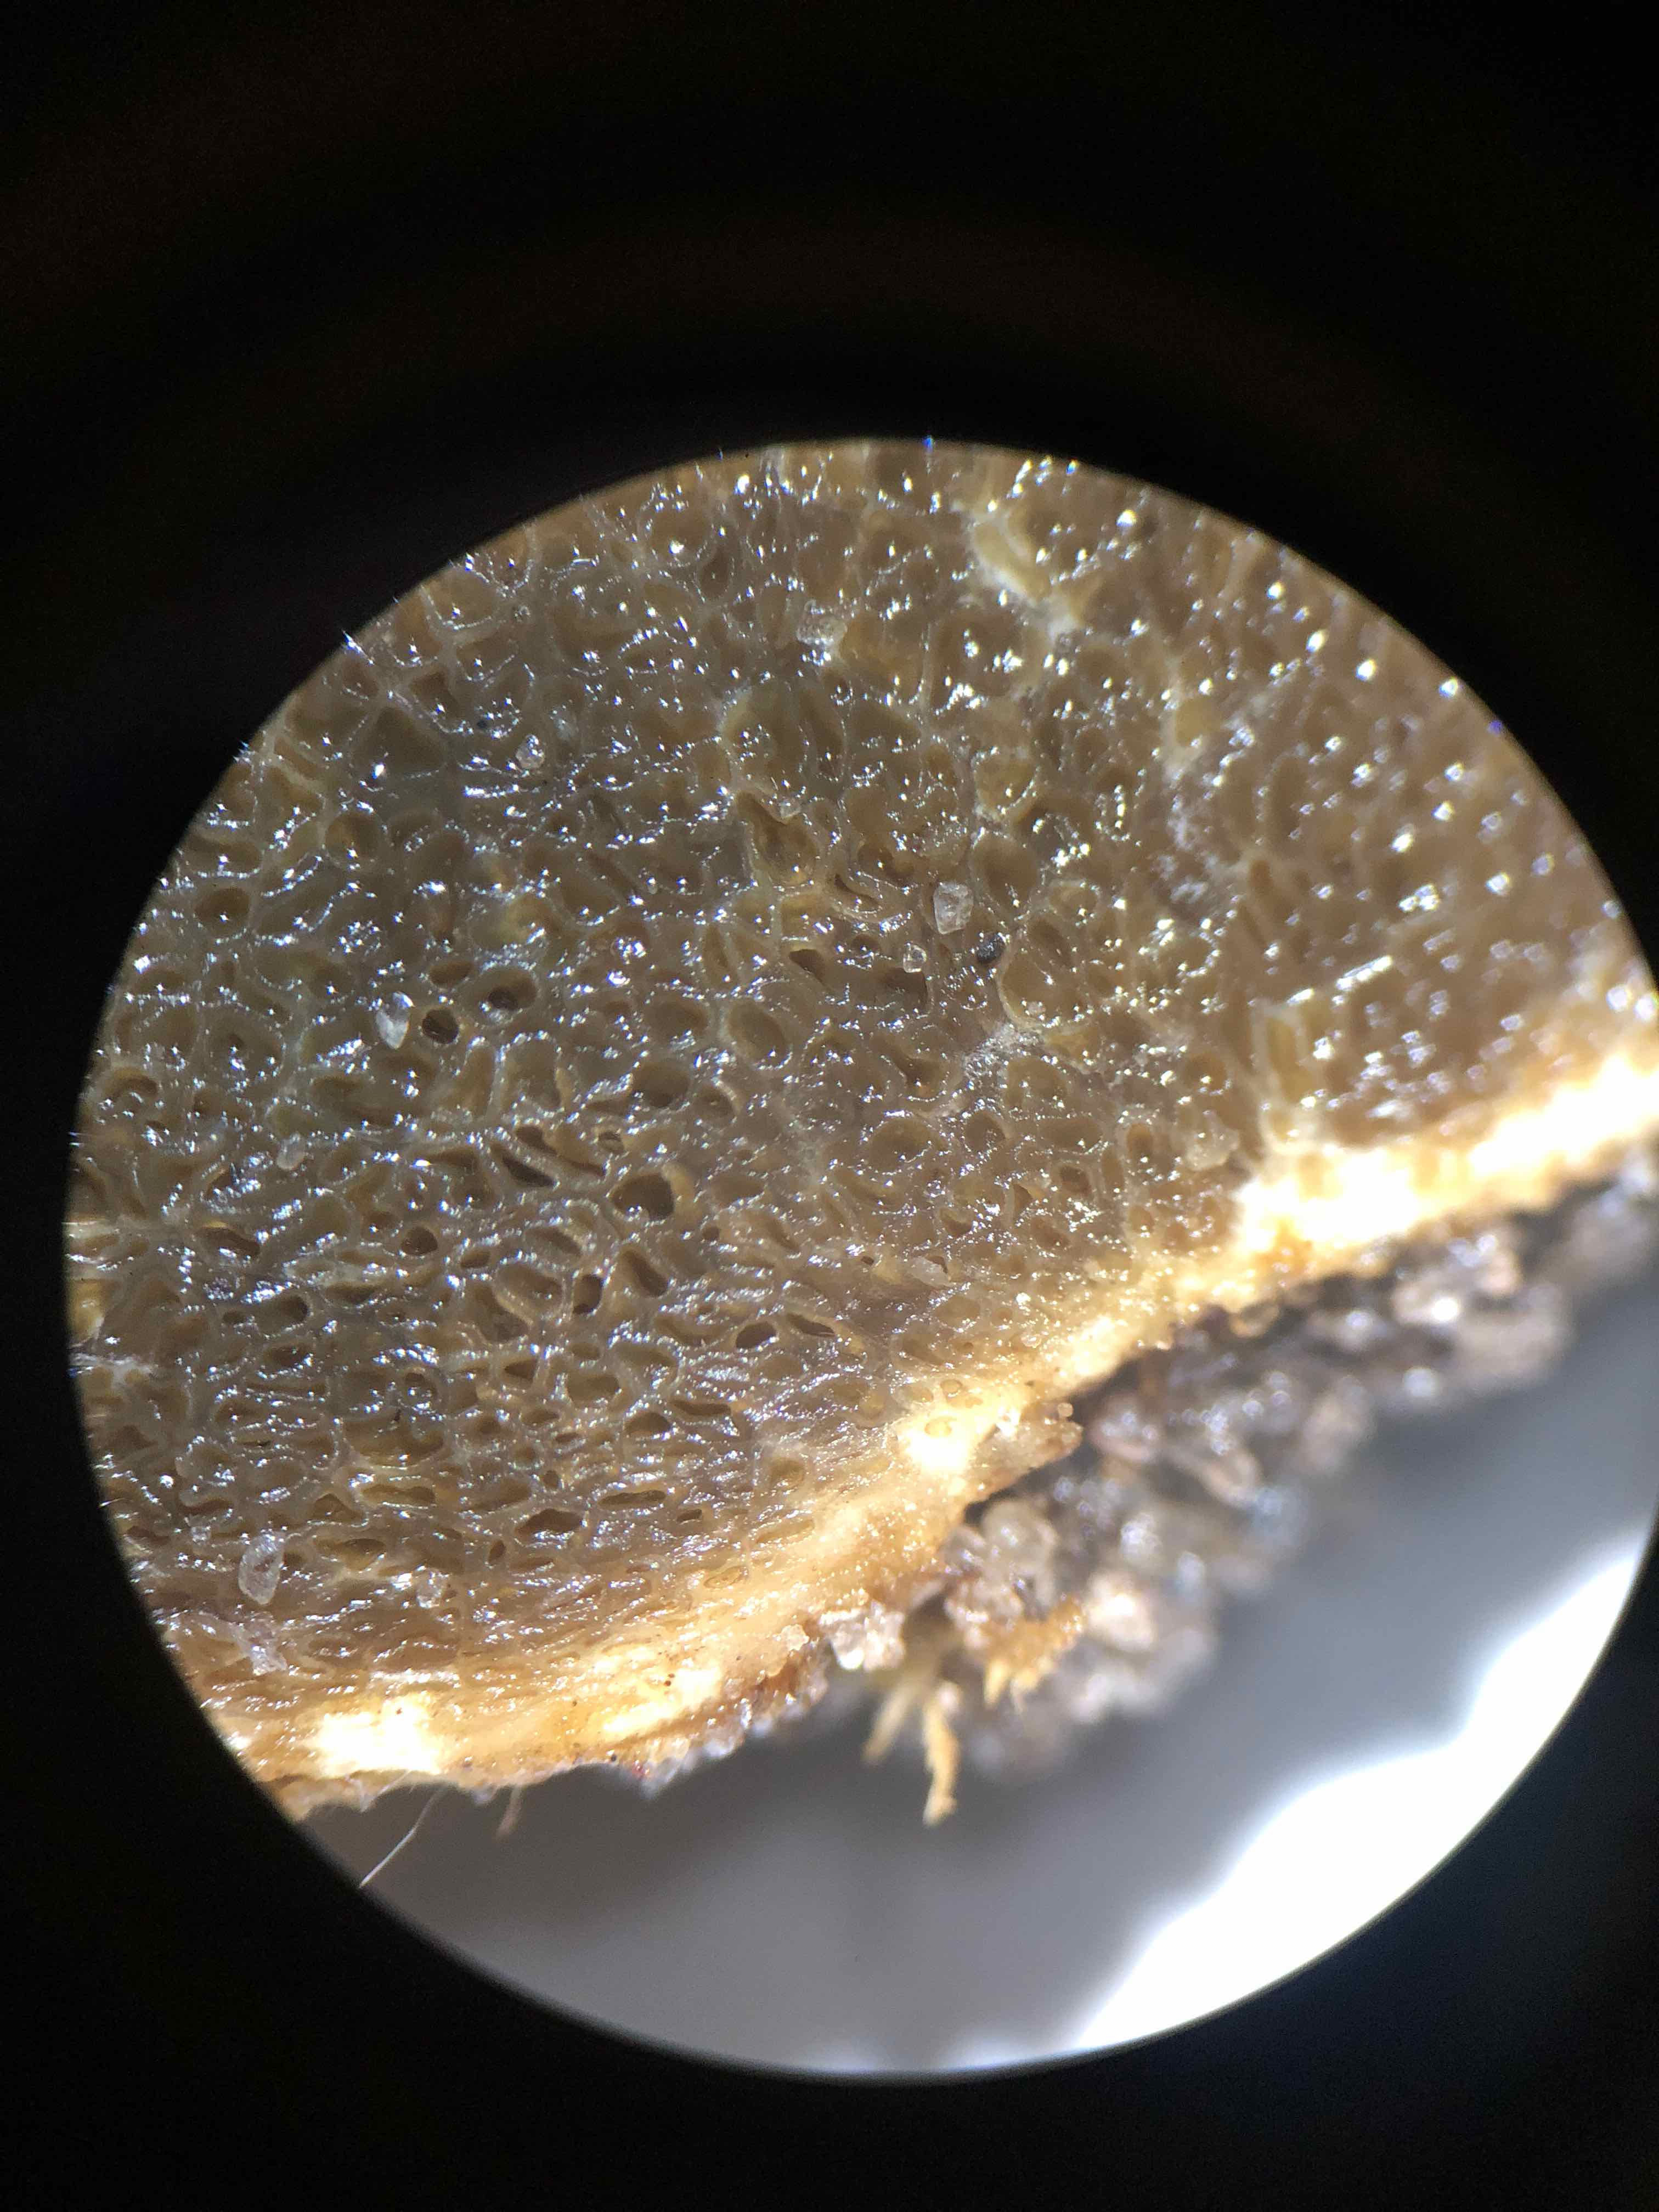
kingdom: Fungi
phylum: Basidiomycota
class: Agaricomycetes
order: Boletales
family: Rhizopogonaceae
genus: Rhizopogon
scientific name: Rhizopogon obtextus
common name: gul skægtrøffel
